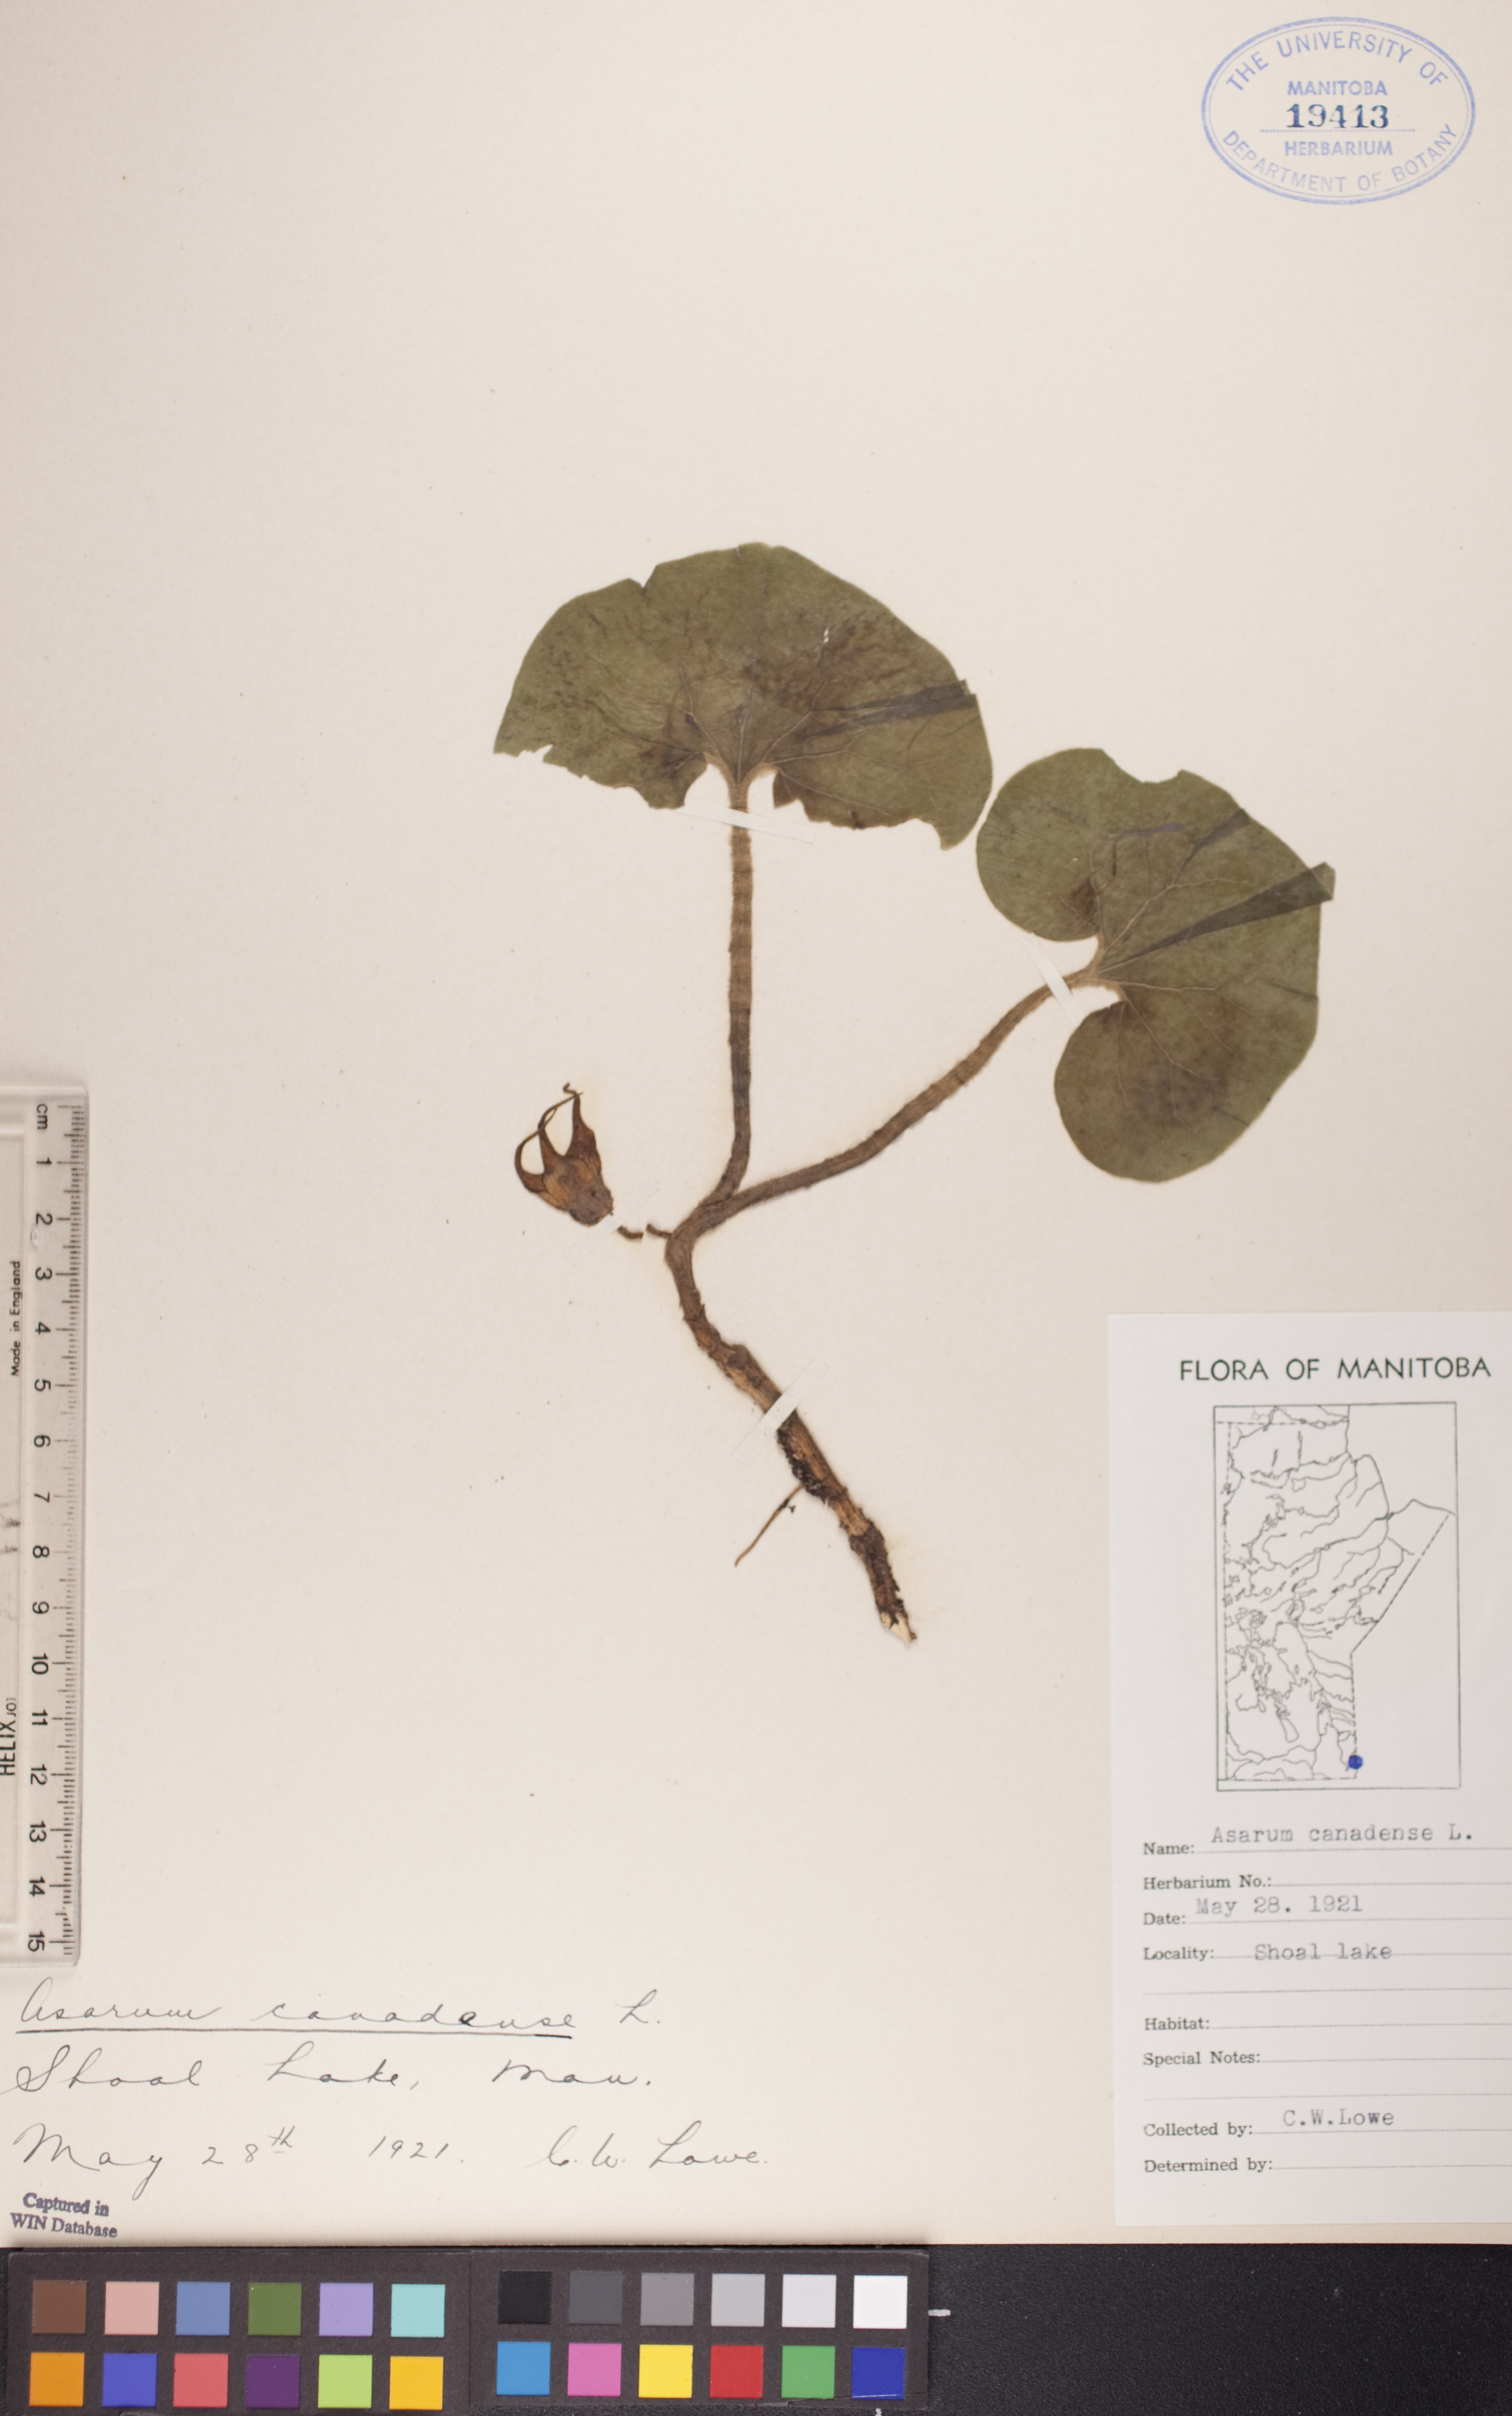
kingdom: Plantae
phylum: Tracheophyta
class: Magnoliopsida
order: Piperales
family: Aristolochiaceae
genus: Asarum
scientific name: Asarum canadense
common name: Wild ginger
